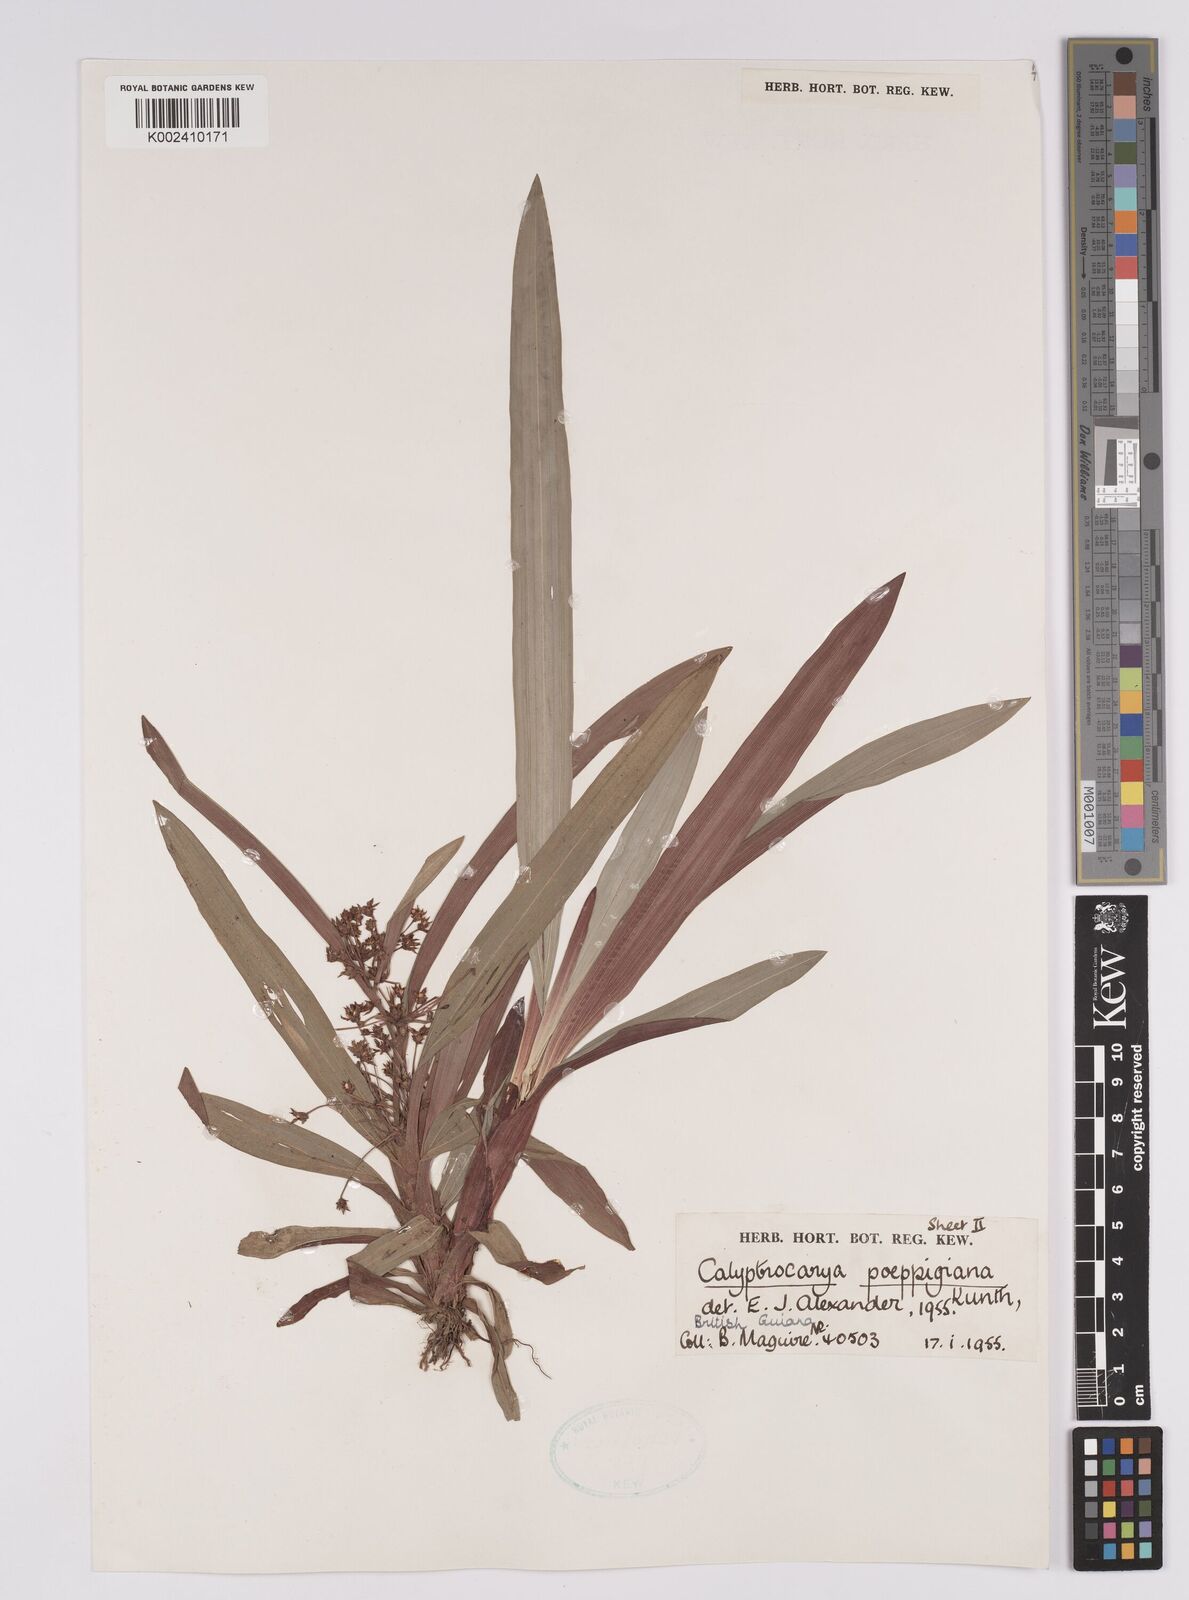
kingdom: Plantae
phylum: Tracheophyta
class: Liliopsida
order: Poales
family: Cyperaceae
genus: Calyptrocarya
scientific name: Calyptrocarya poeppigiana
